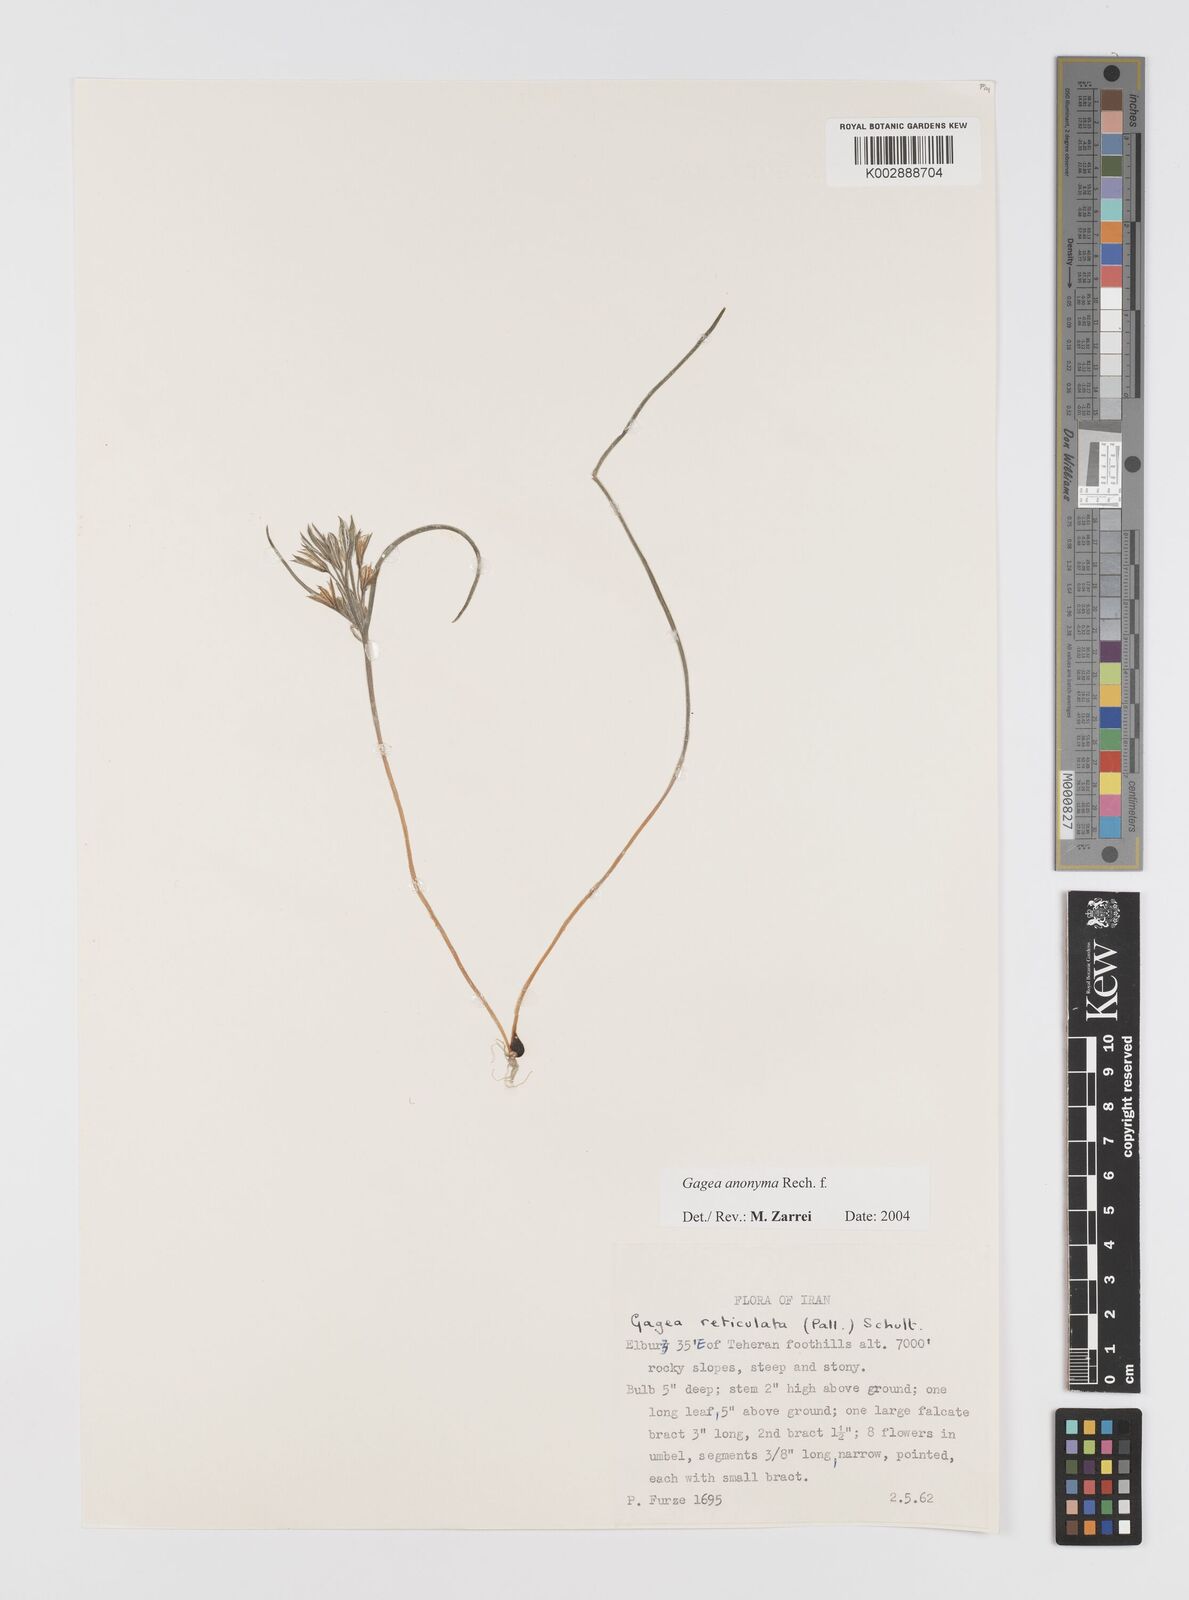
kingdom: Plantae
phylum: Tracheophyta
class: Liliopsida
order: Liliales
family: Liliaceae
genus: Gagea
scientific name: Gagea setifolia
